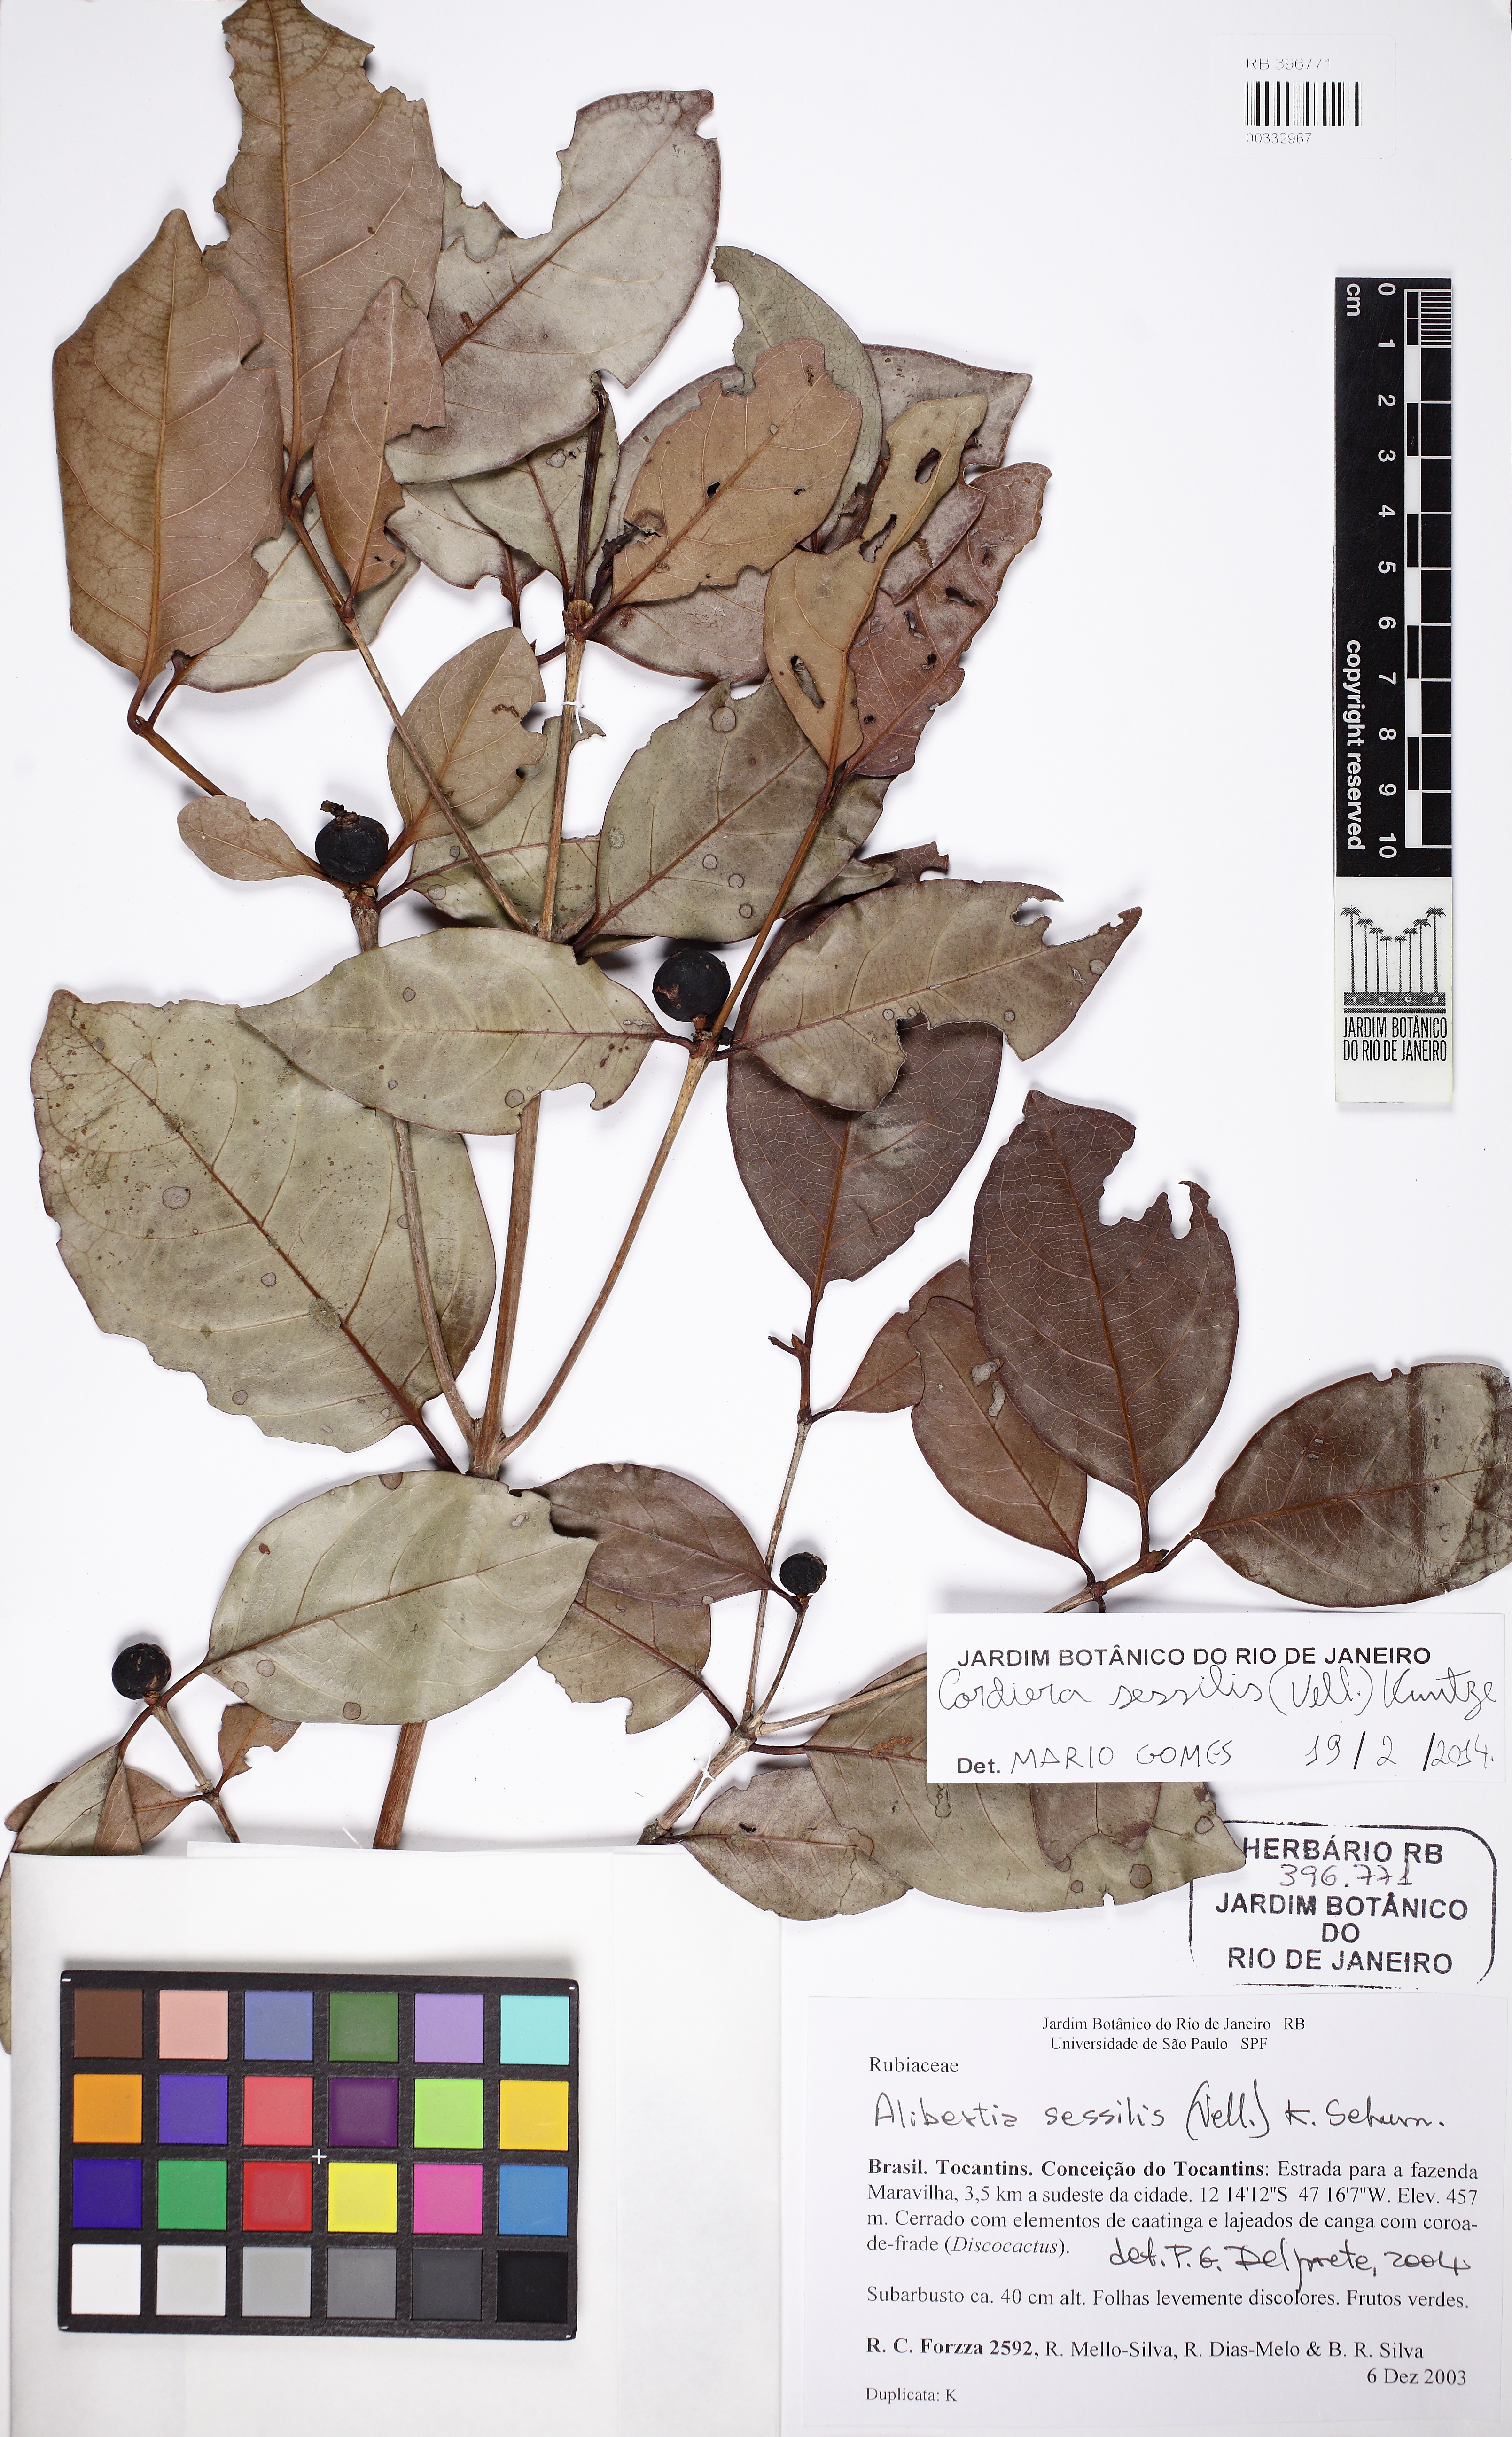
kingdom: Plantae
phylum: Tracheophyta
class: Magnoliopsida
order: Gentianales
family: Rubiaceae
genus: Cordiera
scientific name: Cordiera sessilis
